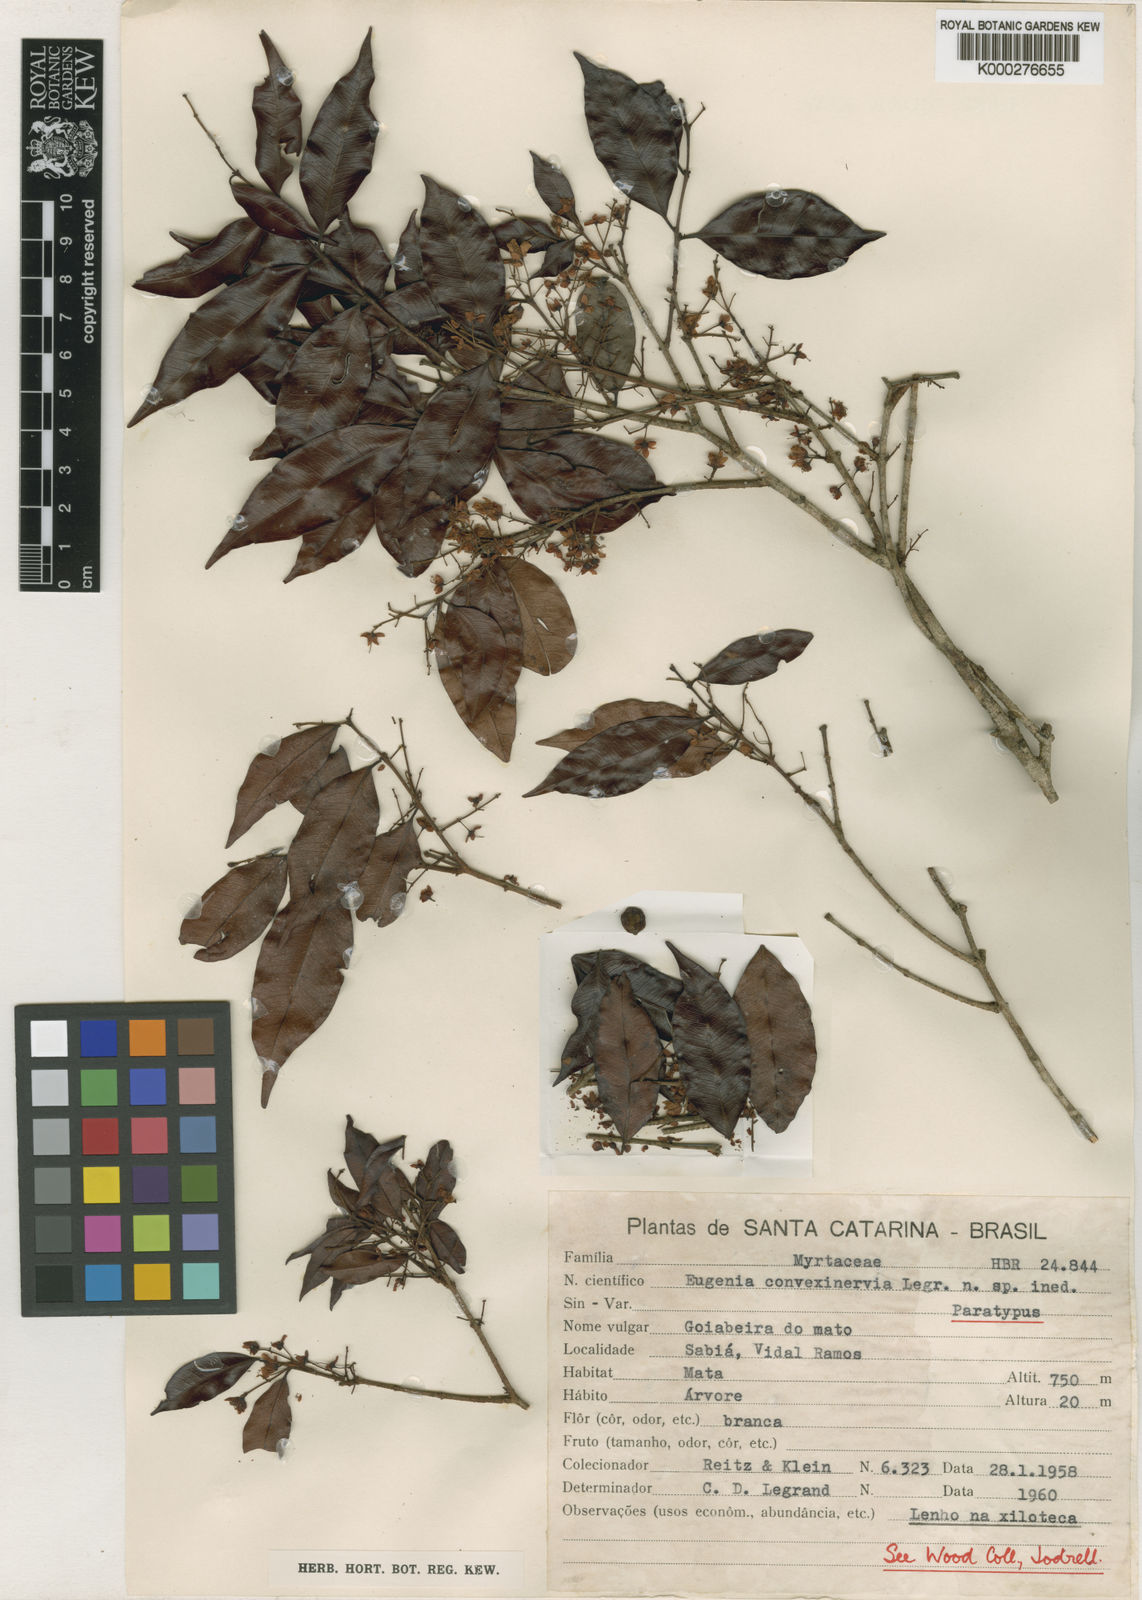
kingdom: Plantae
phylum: Tracheophyta
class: Magnoliopsida
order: Myrtales
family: Myrtaceae
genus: Eugenia
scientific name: Eugenia convexinervia
